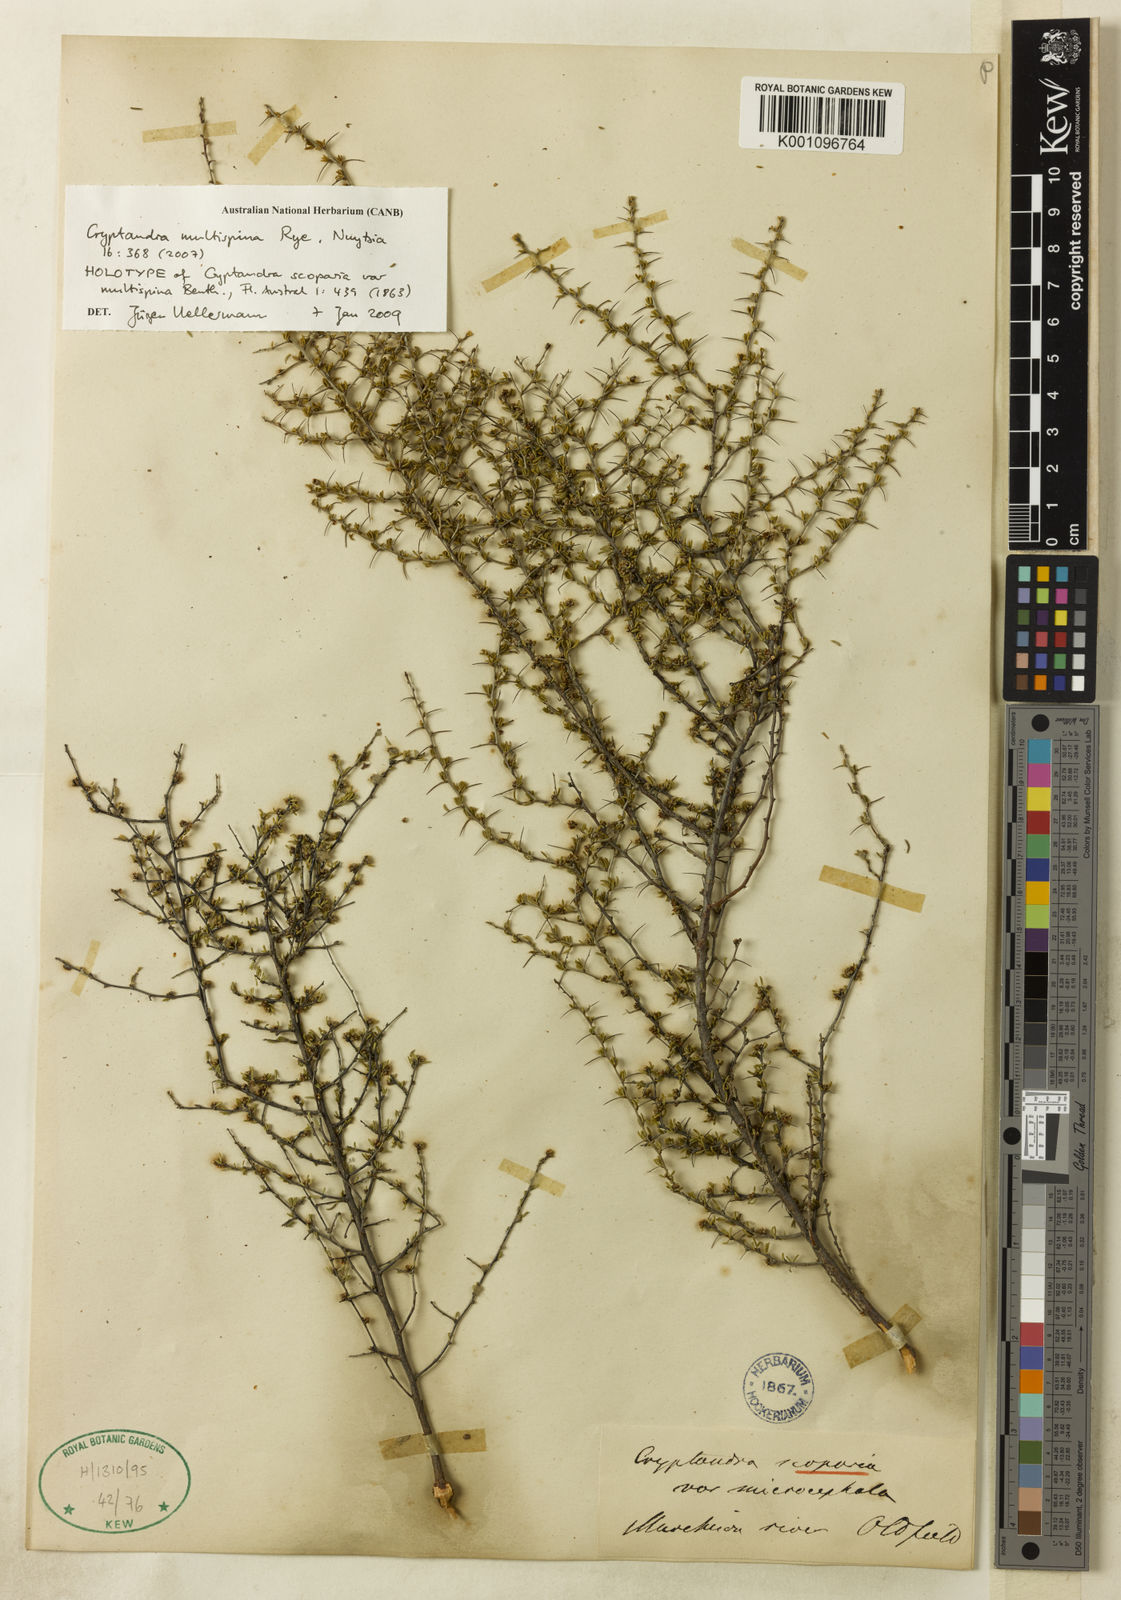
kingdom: Plantae
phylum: Tracheophyta
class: Magnoliopsida
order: Rosales
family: Rhamnaceae
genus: Cryptandra
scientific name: Cryptandra scoparia
